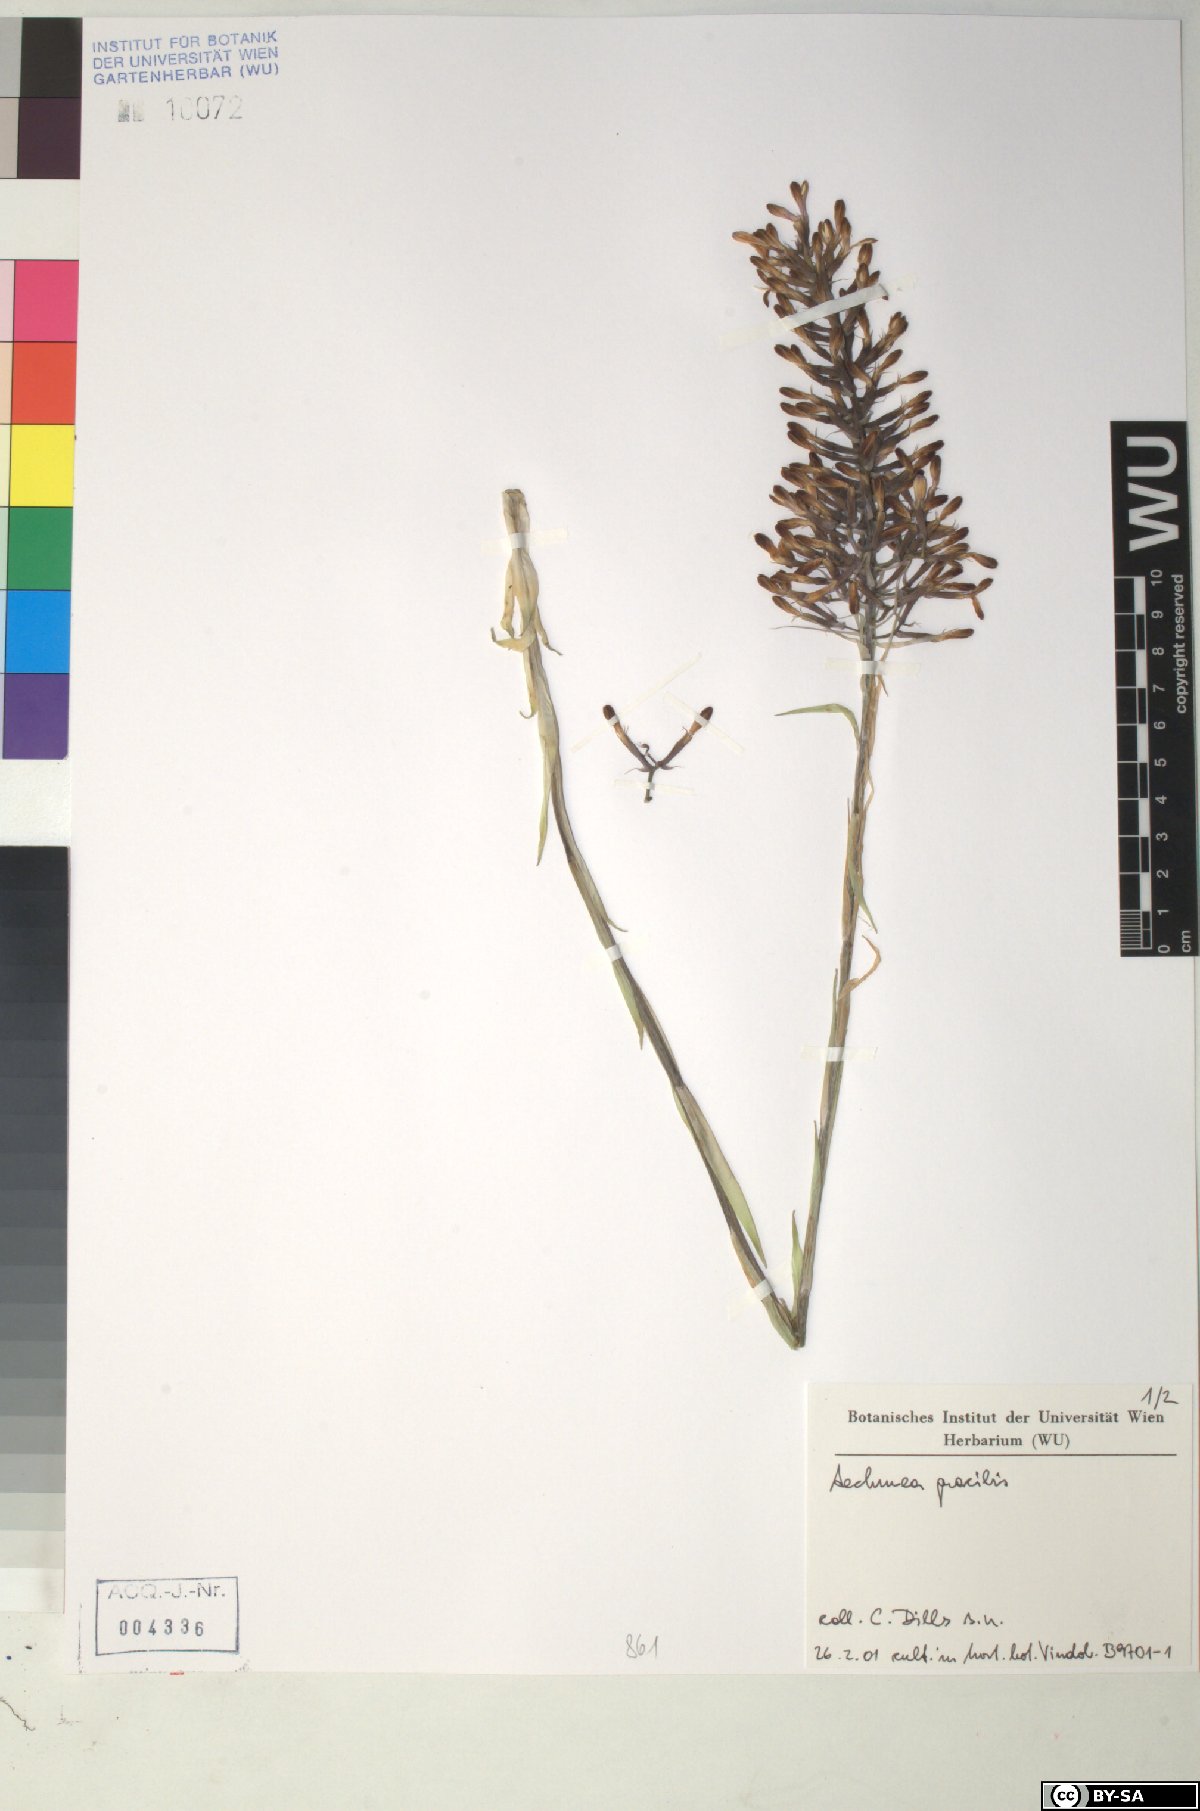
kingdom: Plantae
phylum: Tracheophyta
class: Liliopsida
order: Poales
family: Bromeliaceae
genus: Aechmea
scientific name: Aechmea
